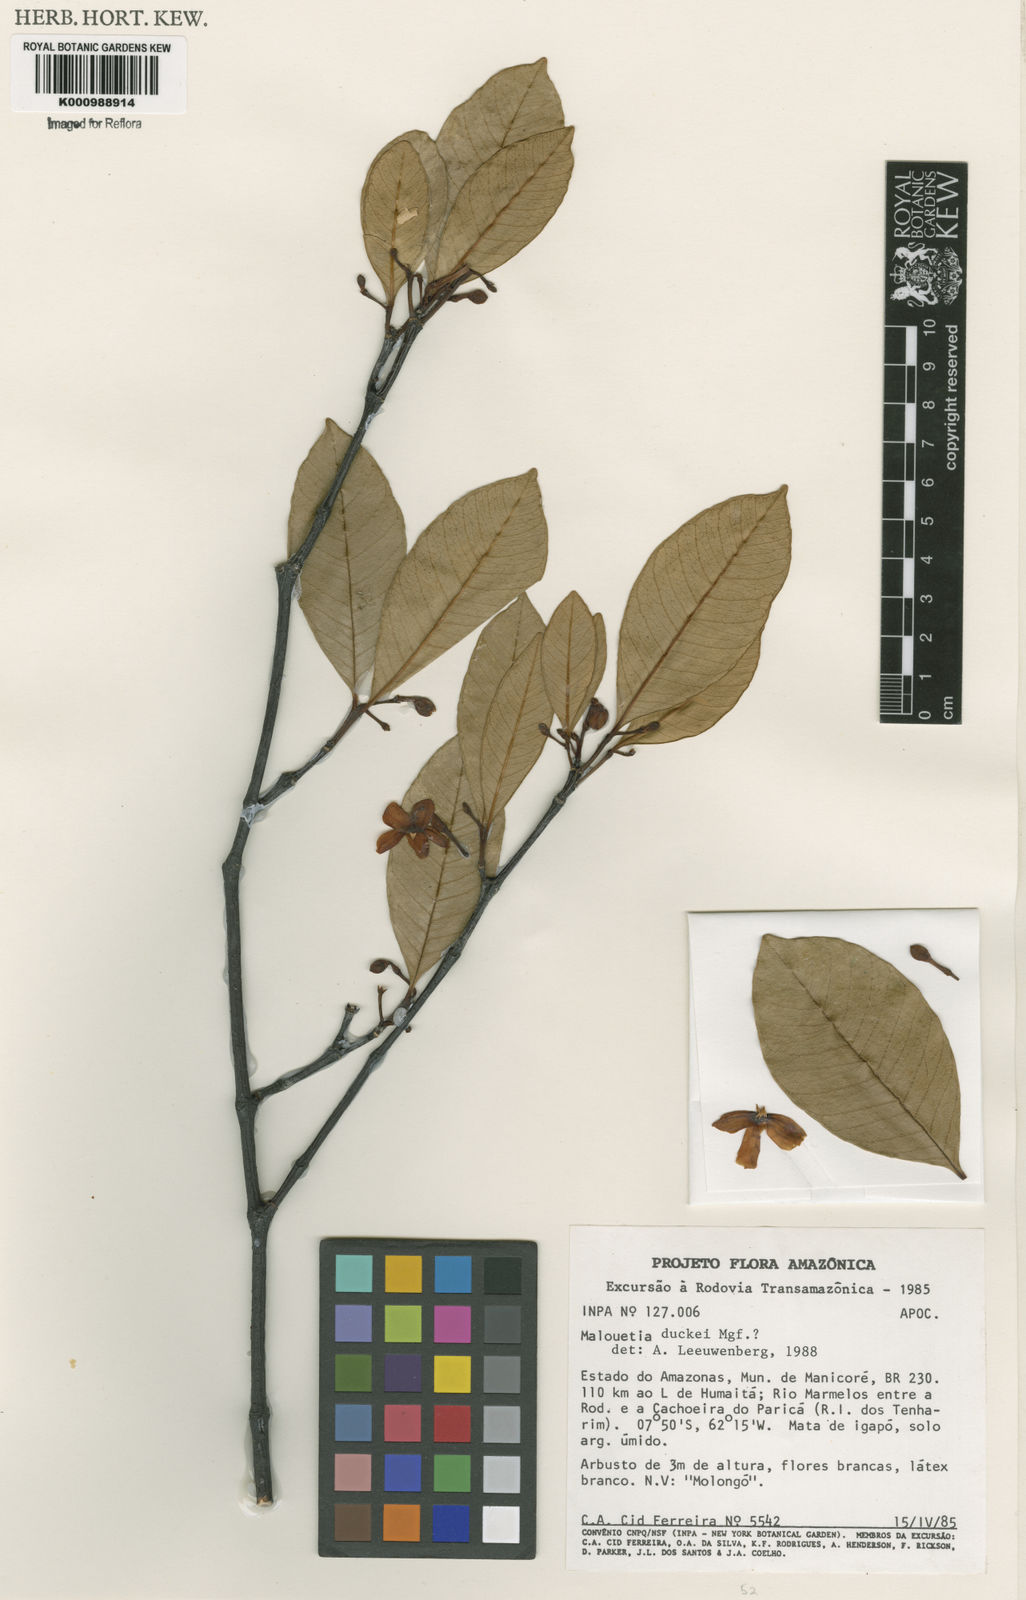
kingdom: Plantae
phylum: Tracheophyta
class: Magnoliopsida
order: Gentianales
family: Apocynaceae
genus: Malouetia
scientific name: Malouetia duckei
